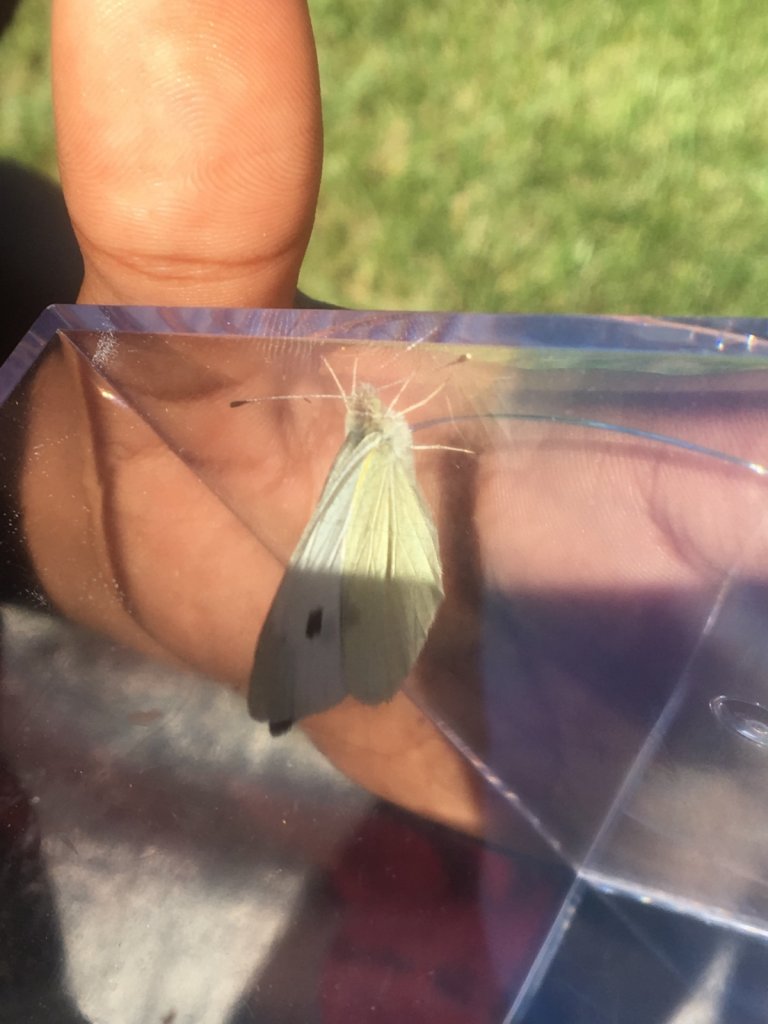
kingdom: Animalia
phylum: Arthropoda
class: Insecta
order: Lepidoptera
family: Pieridae
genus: Pieris
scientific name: Pieris rapae
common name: Cabbage White
